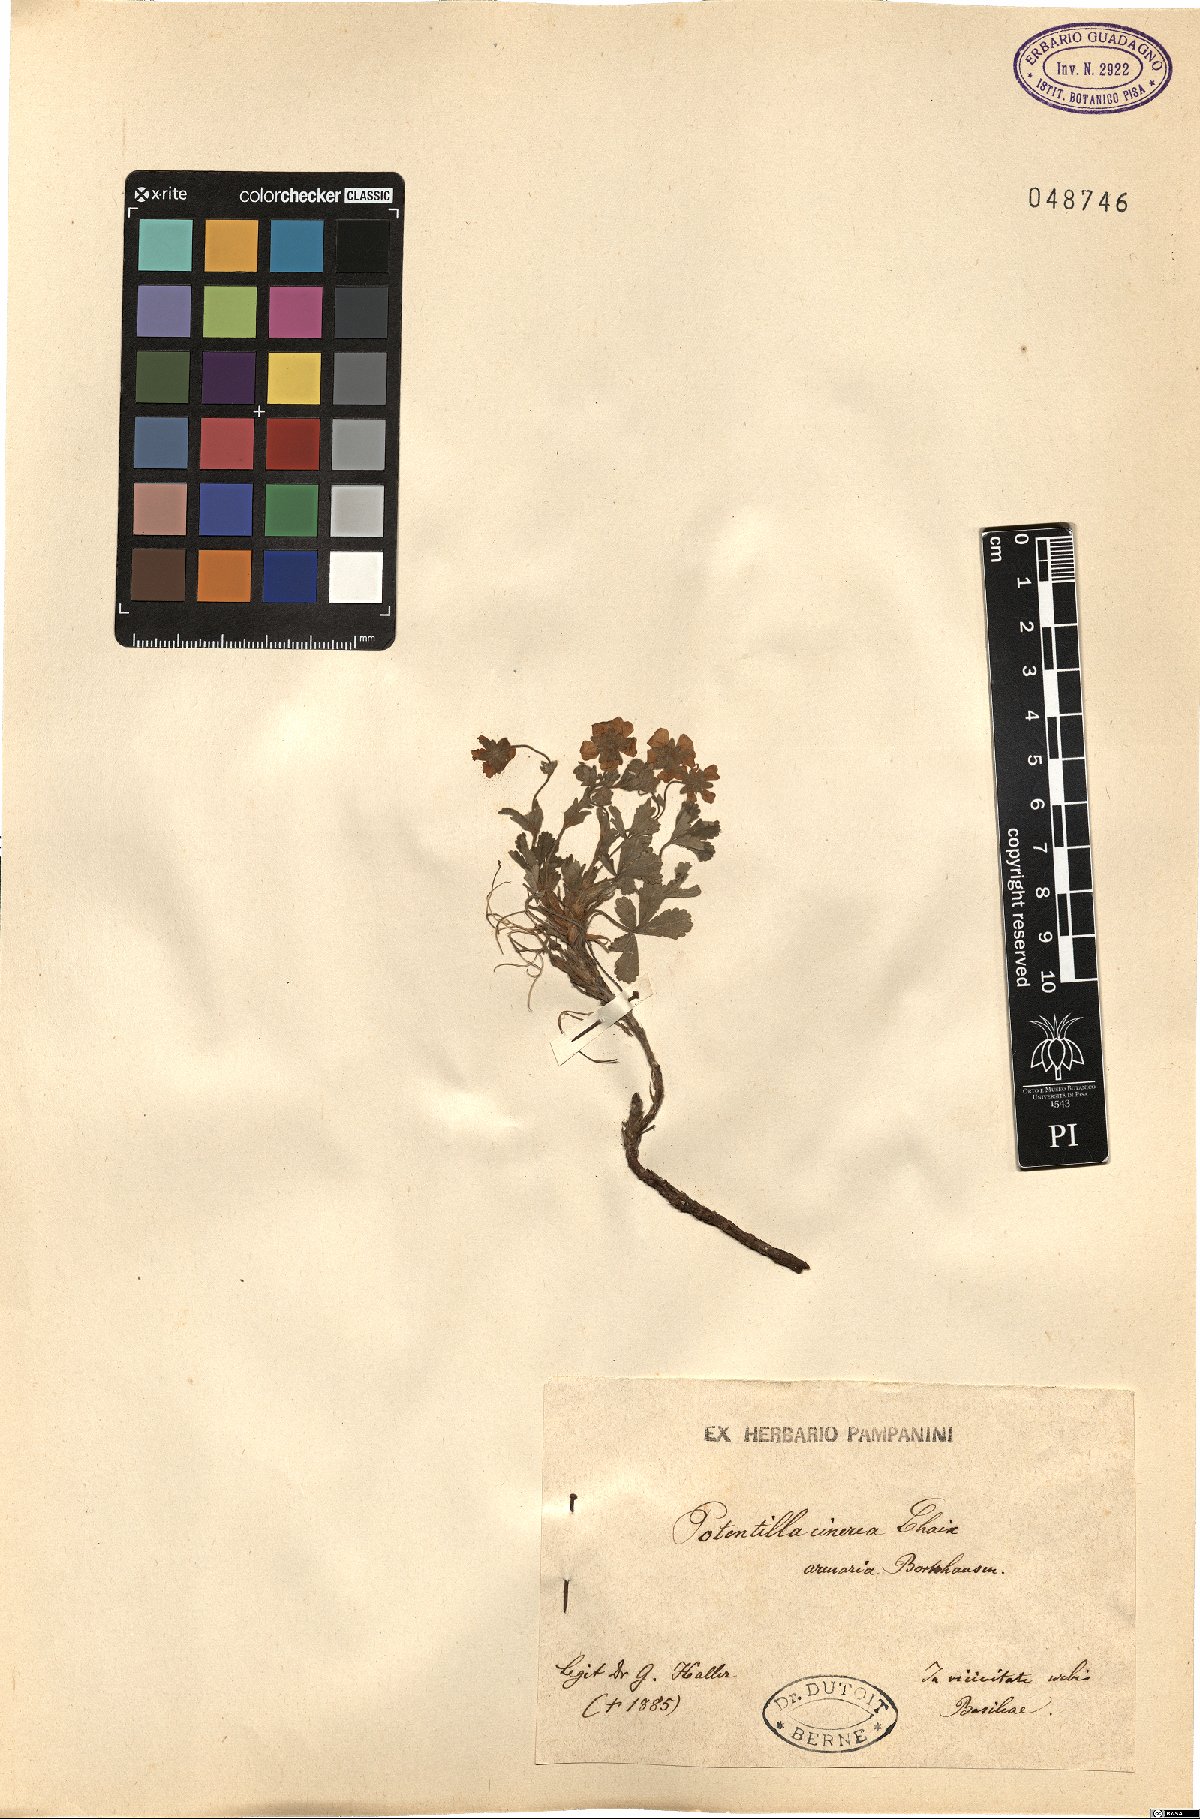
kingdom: Plantae
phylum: Tracheophyta
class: Magnoliopsida
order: Rosales
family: Rosaceae
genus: Potentilla
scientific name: Potentilla cinerea
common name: Ashy cinquefoil
